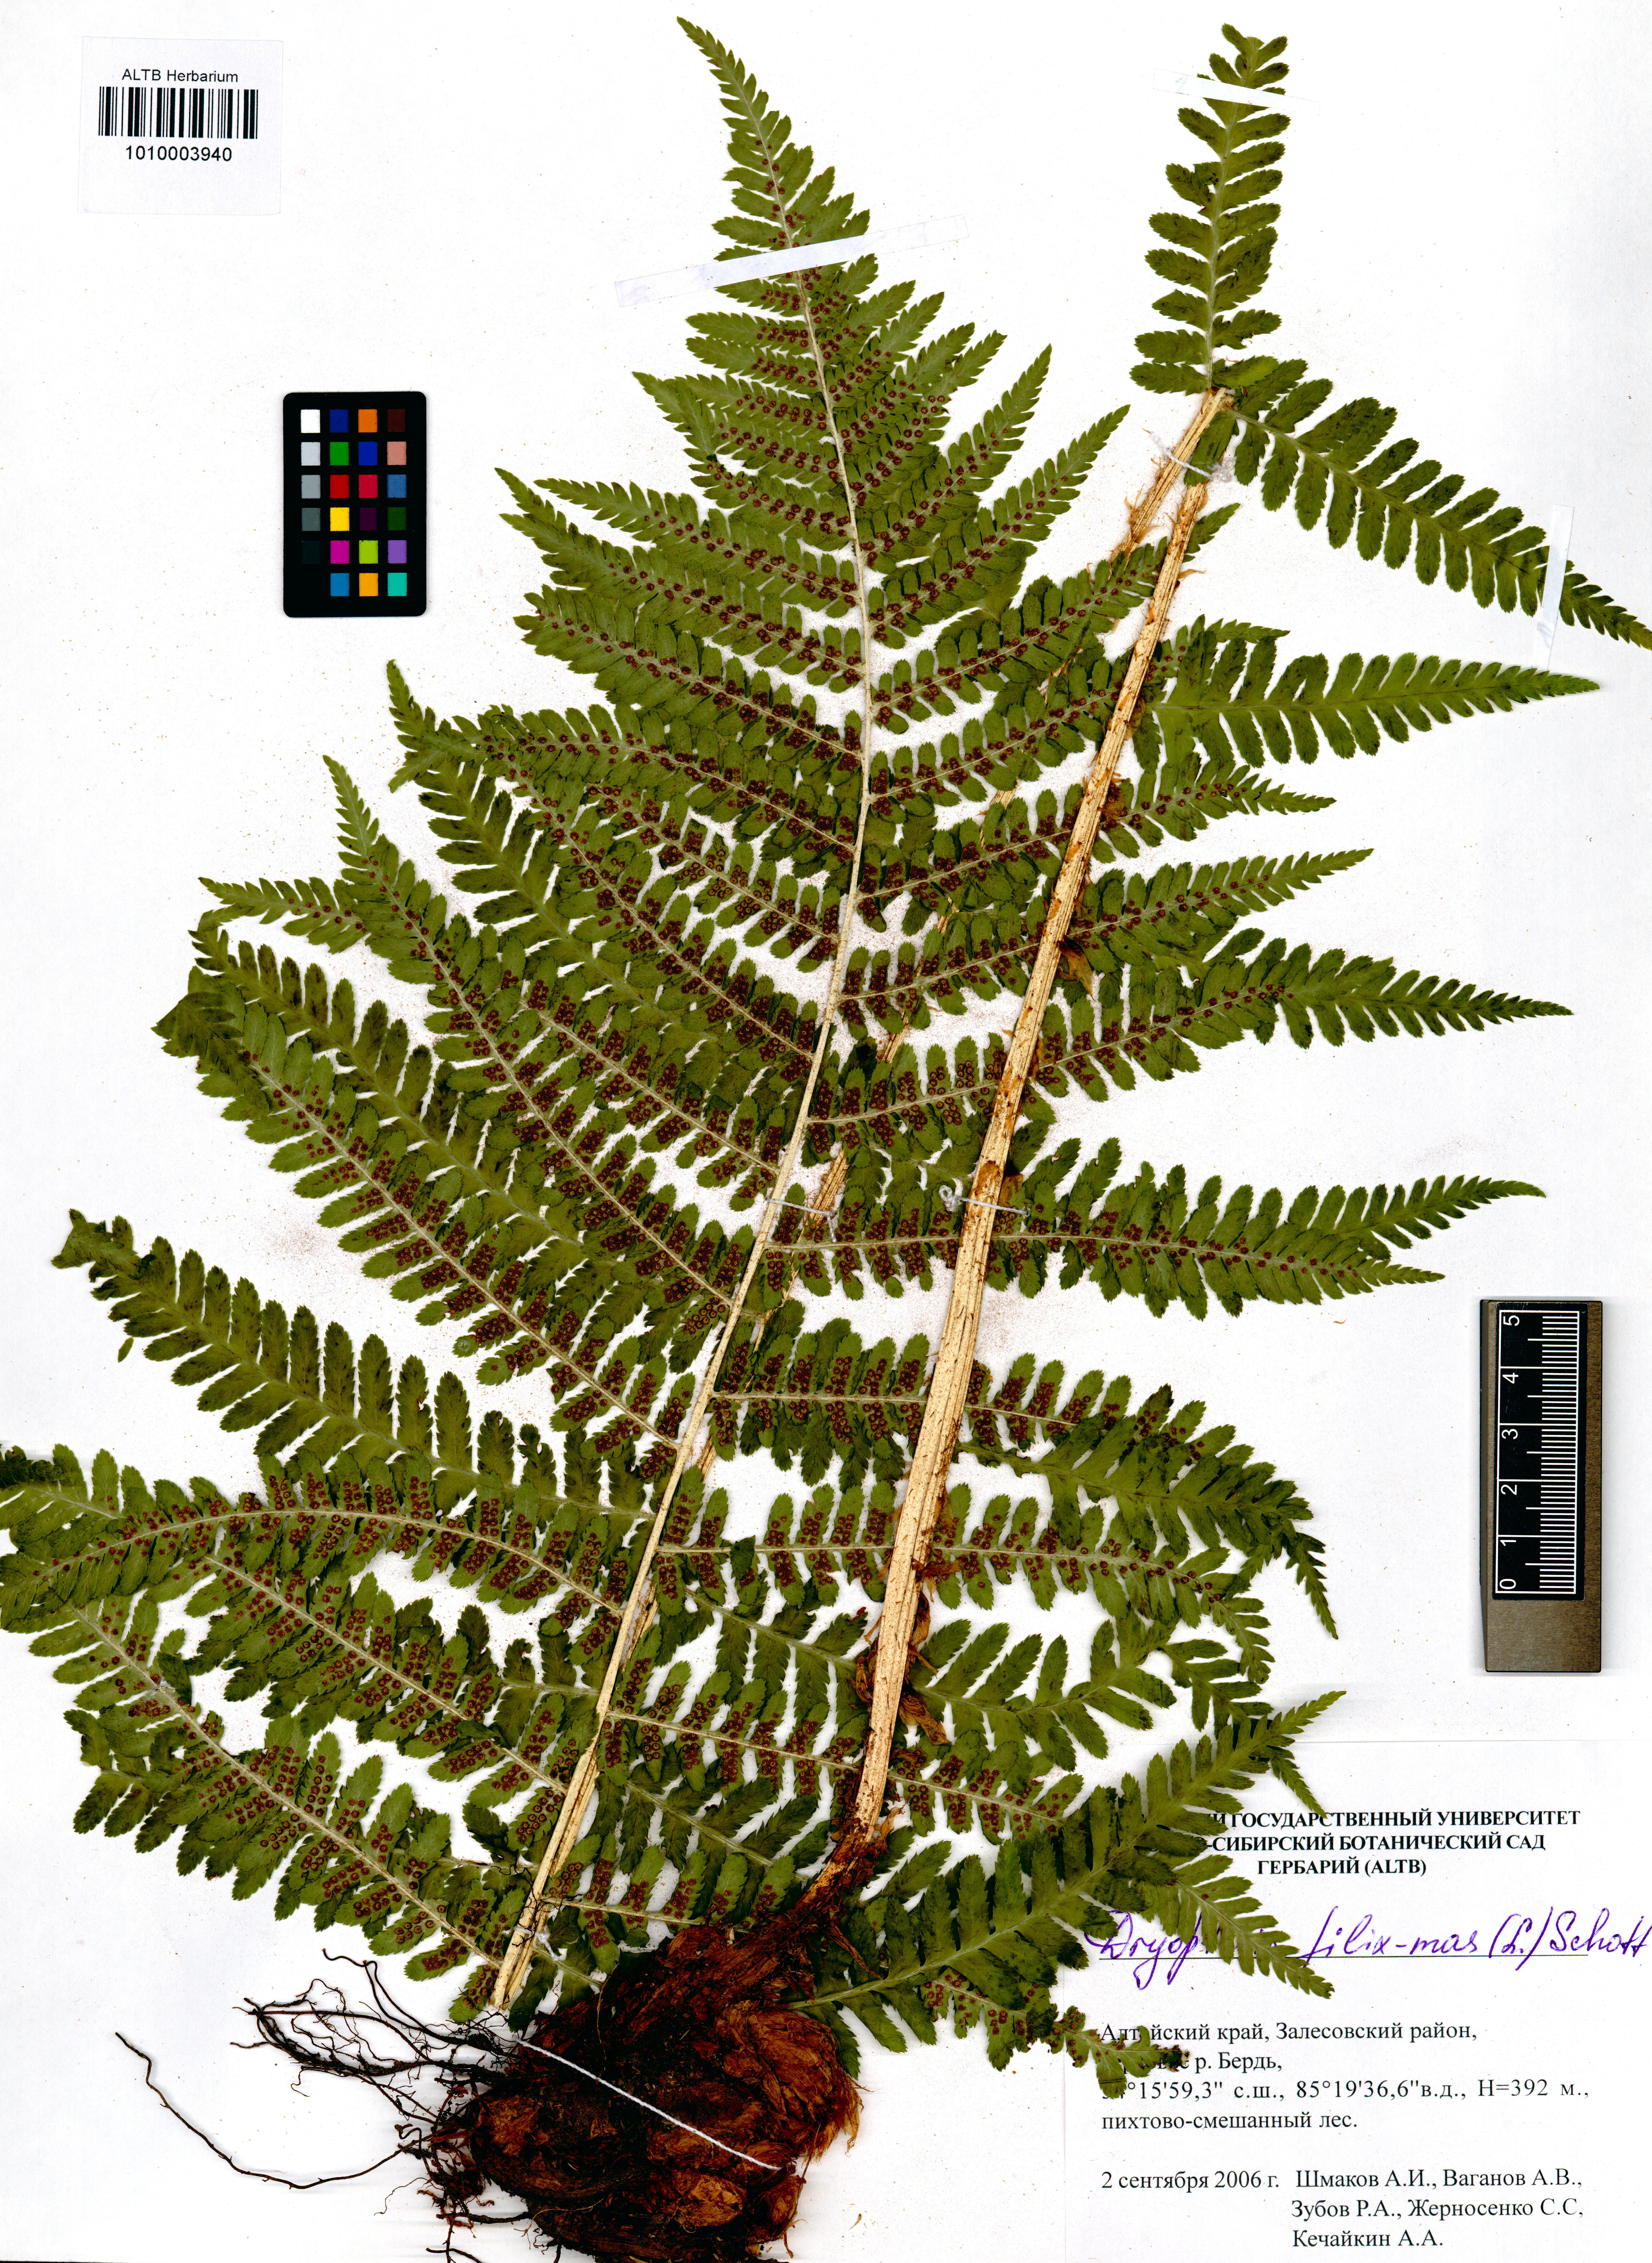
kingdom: Plantae
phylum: Tracheophyta
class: Polypodiopsida
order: Polypodiales
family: Dryopteridaceae
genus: Dryopteris
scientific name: Dryopteris filix-mas
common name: Male fern
